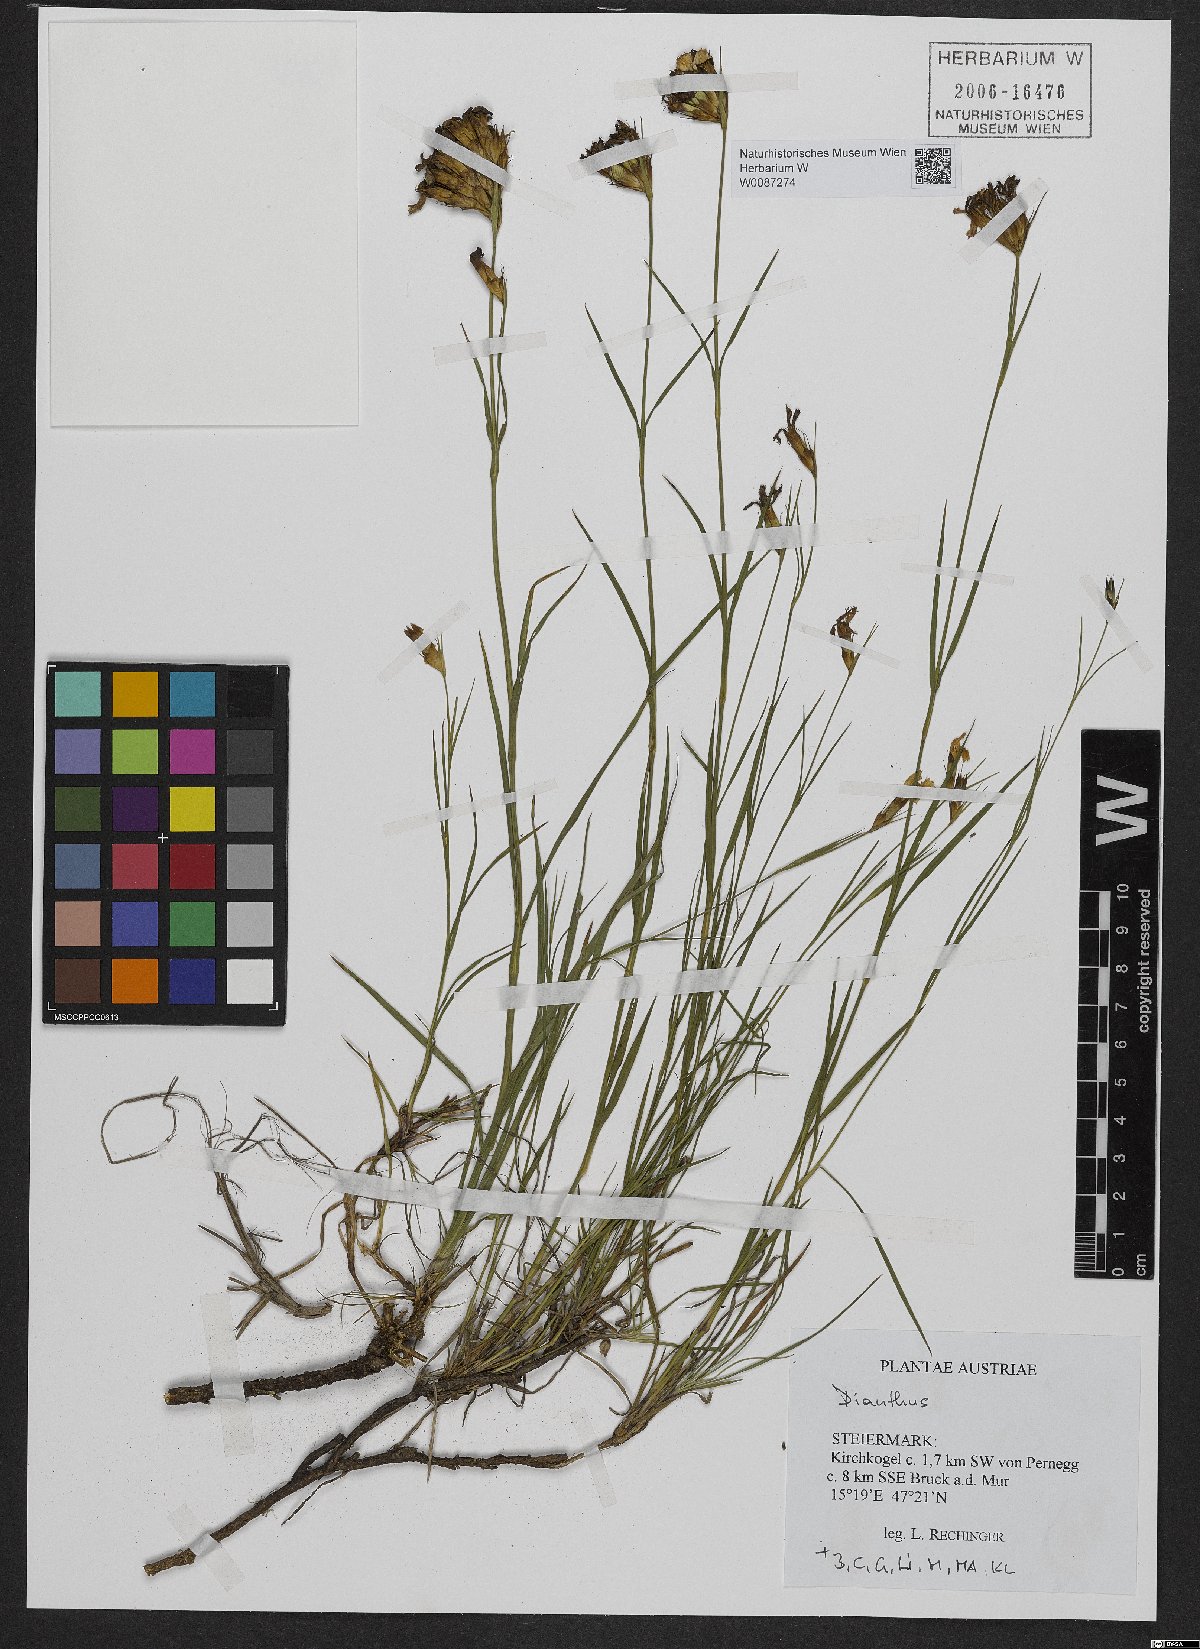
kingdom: Plantae
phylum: Tracheophyta
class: Magnoliopsida
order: Caryophyllales
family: Caryophyllaceae
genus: Dianthus
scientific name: Dianthus carthusianorum
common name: Carthusian pink
